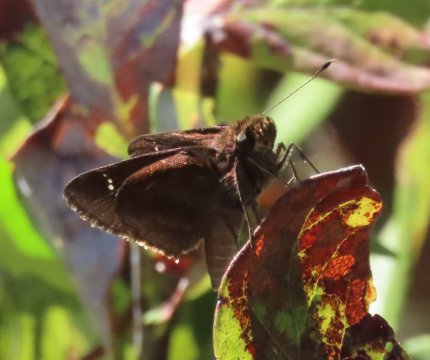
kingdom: Animalia
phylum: Arthropoda
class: Insecta
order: Lepidoptera
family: Hesperiidae
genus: Lerema
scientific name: Lerema accius
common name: Clouded Skipper
